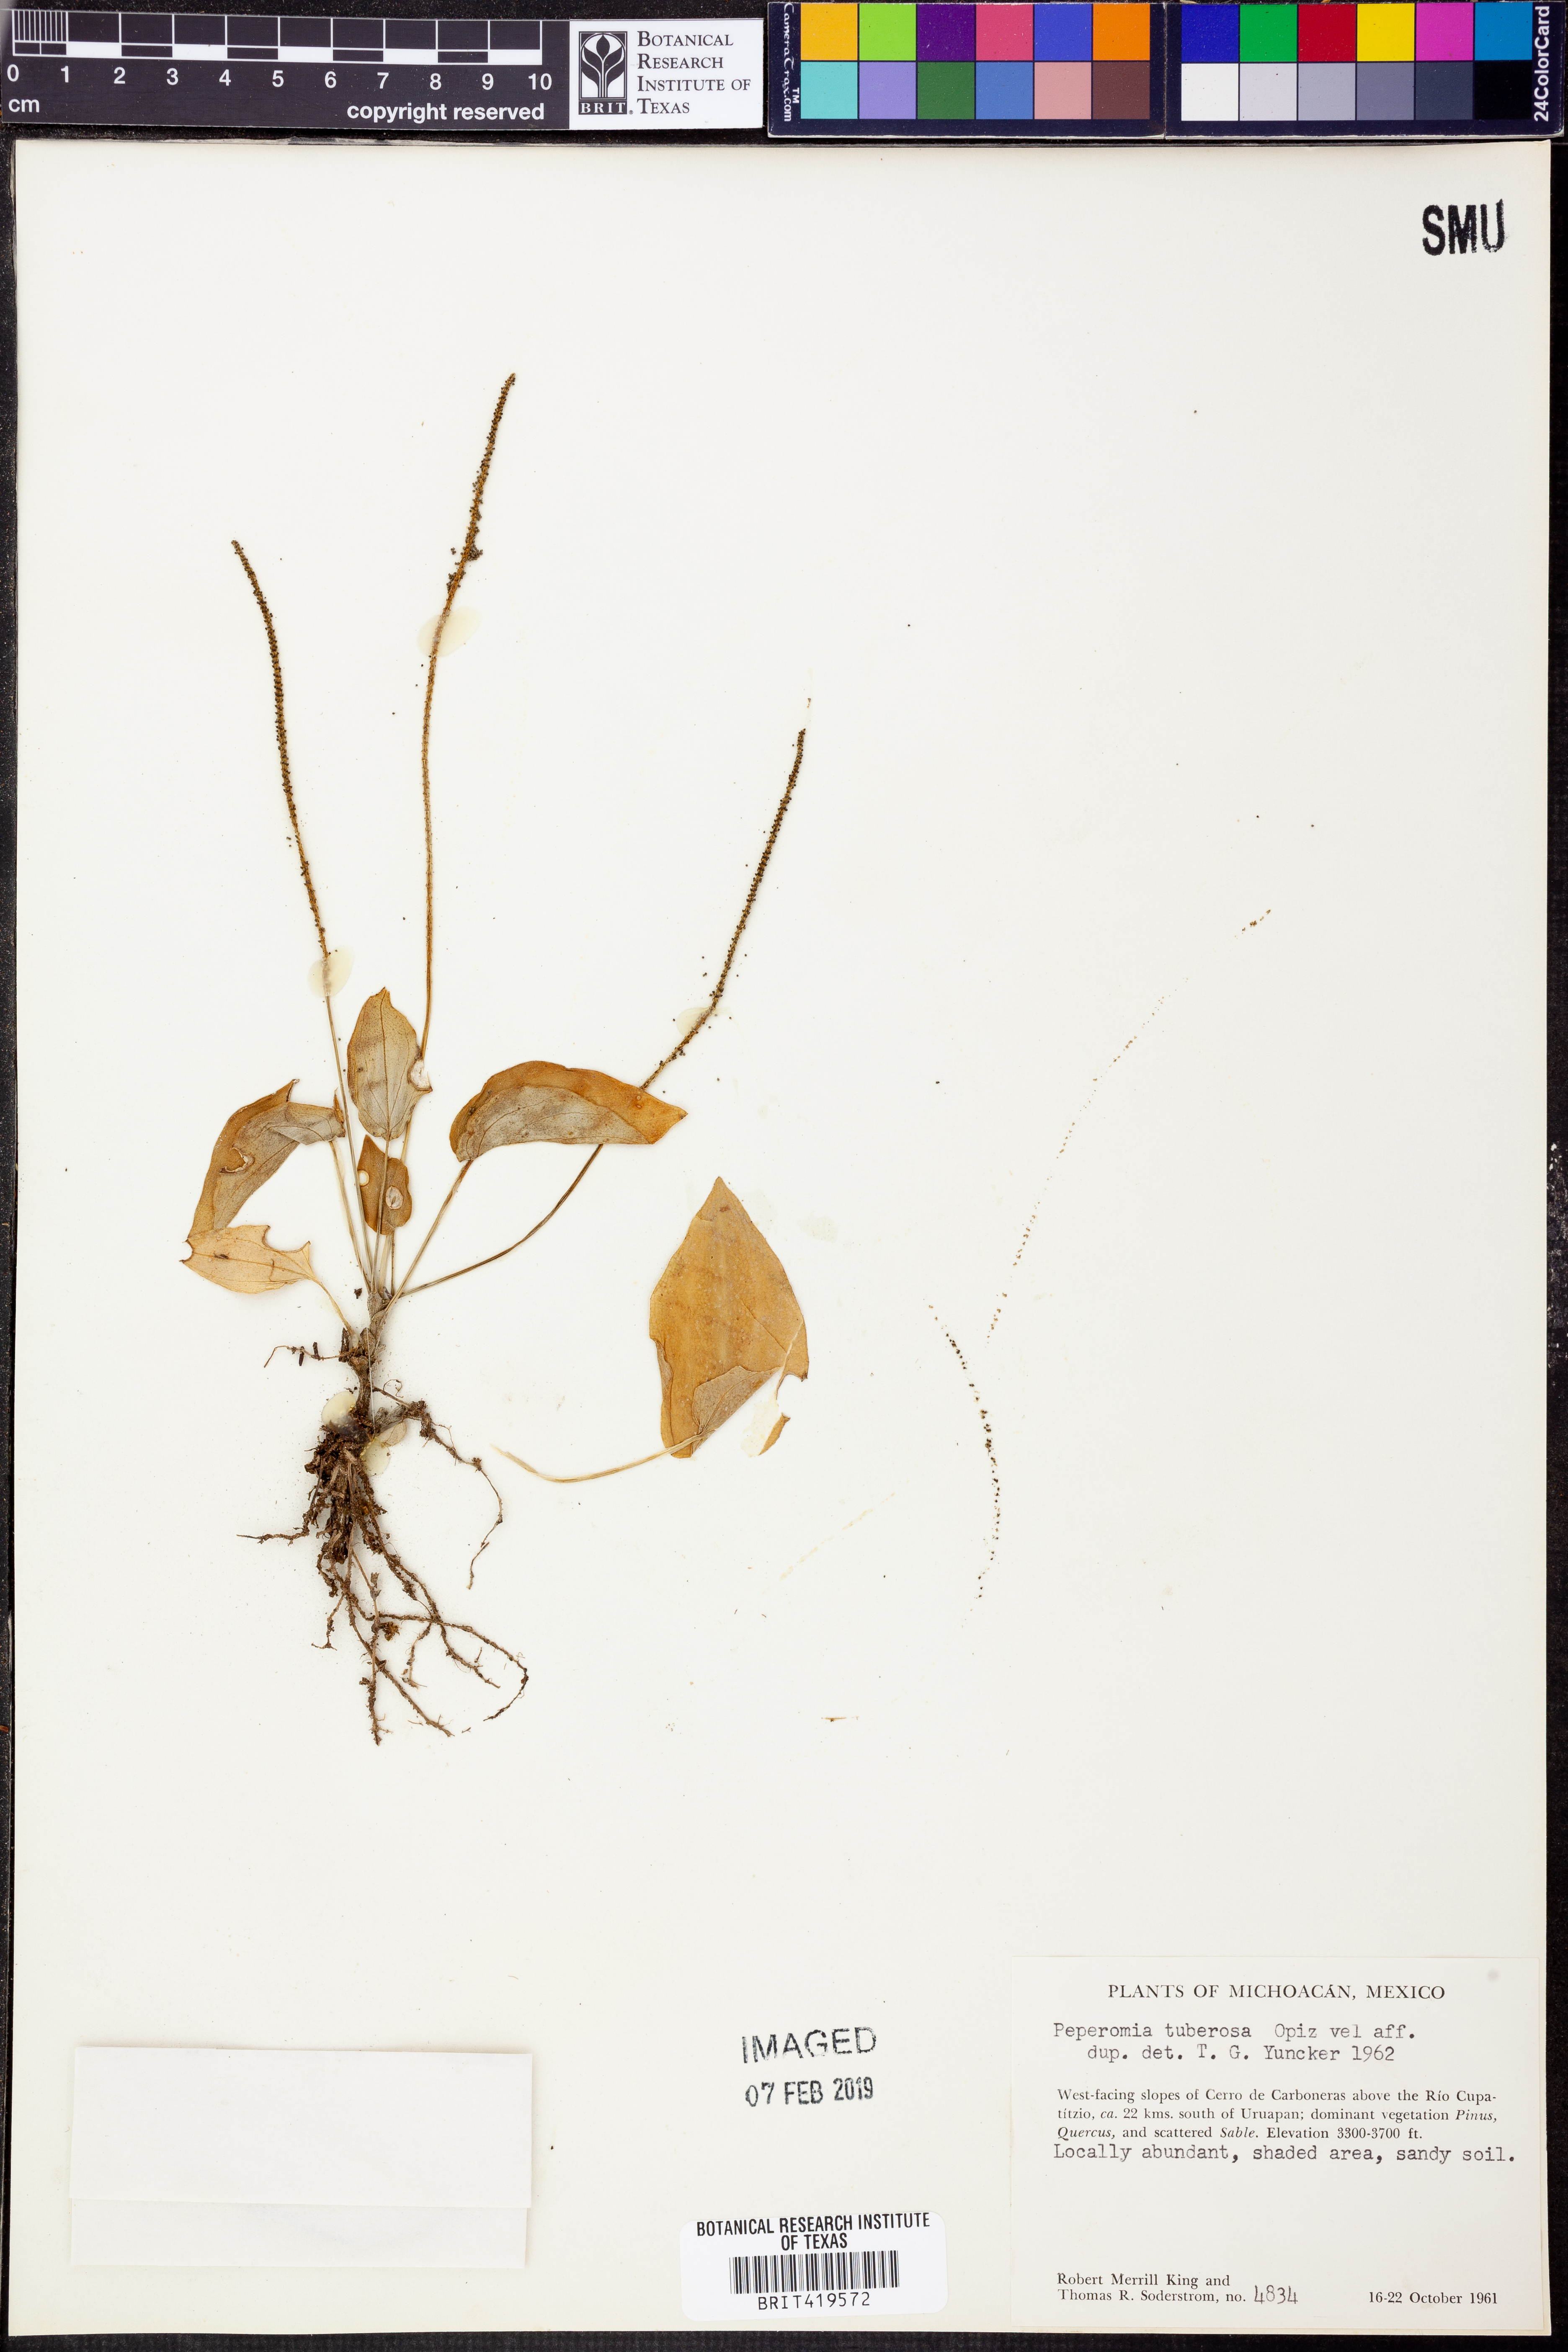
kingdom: Plantae
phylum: Tracheophyta
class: Magnoliopsida
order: Piperales
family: Piperaceae
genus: Peperomia
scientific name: Peperomia tuberosa
